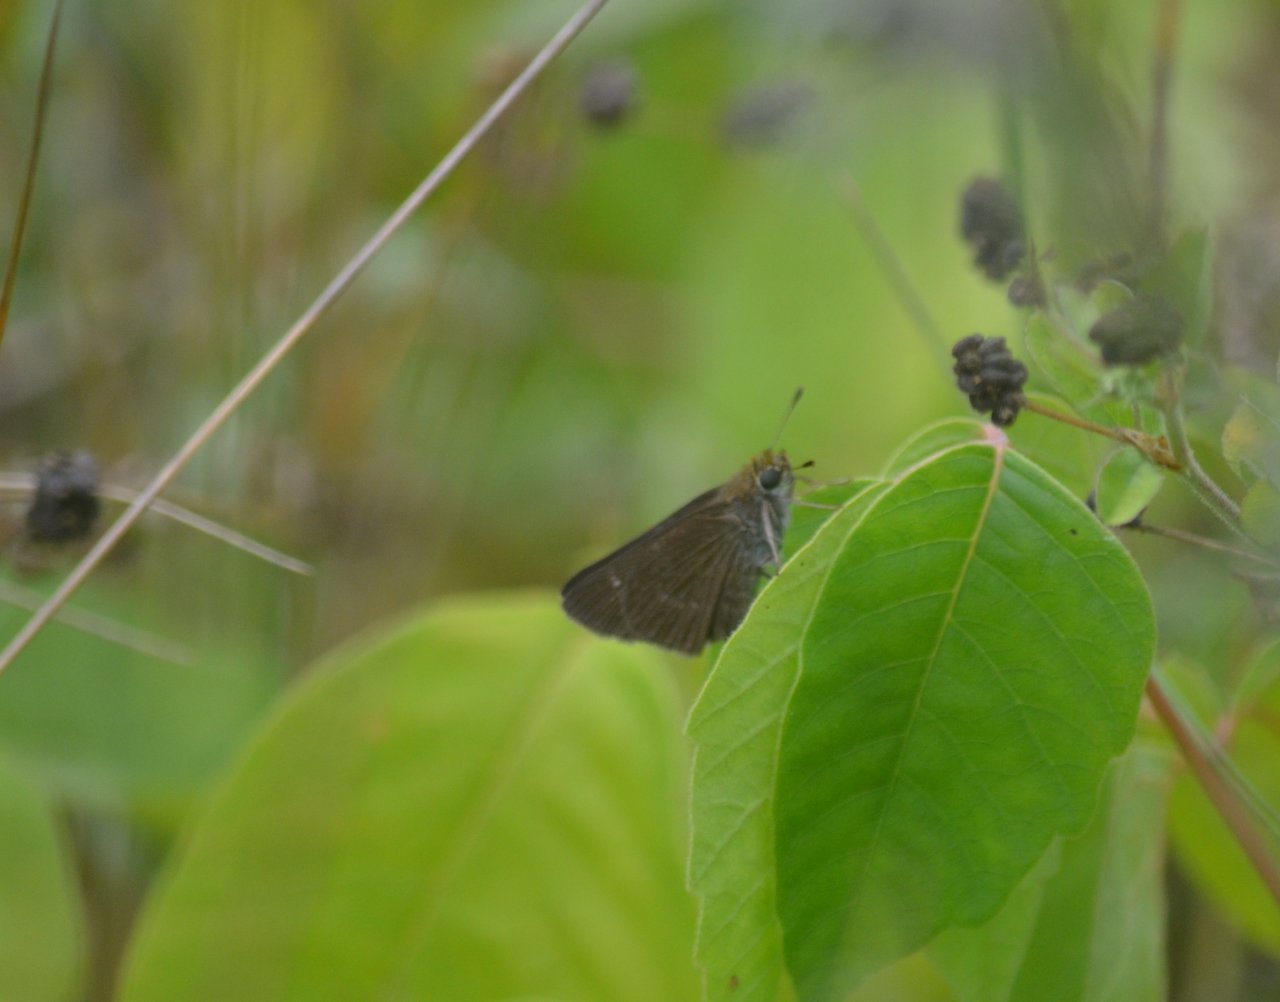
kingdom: Animalia
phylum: Arthropoda
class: Insecta
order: Lepidoptera
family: Hesperiidae
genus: Euphyes
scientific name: Euphyes vestris
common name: Dun Skipper
